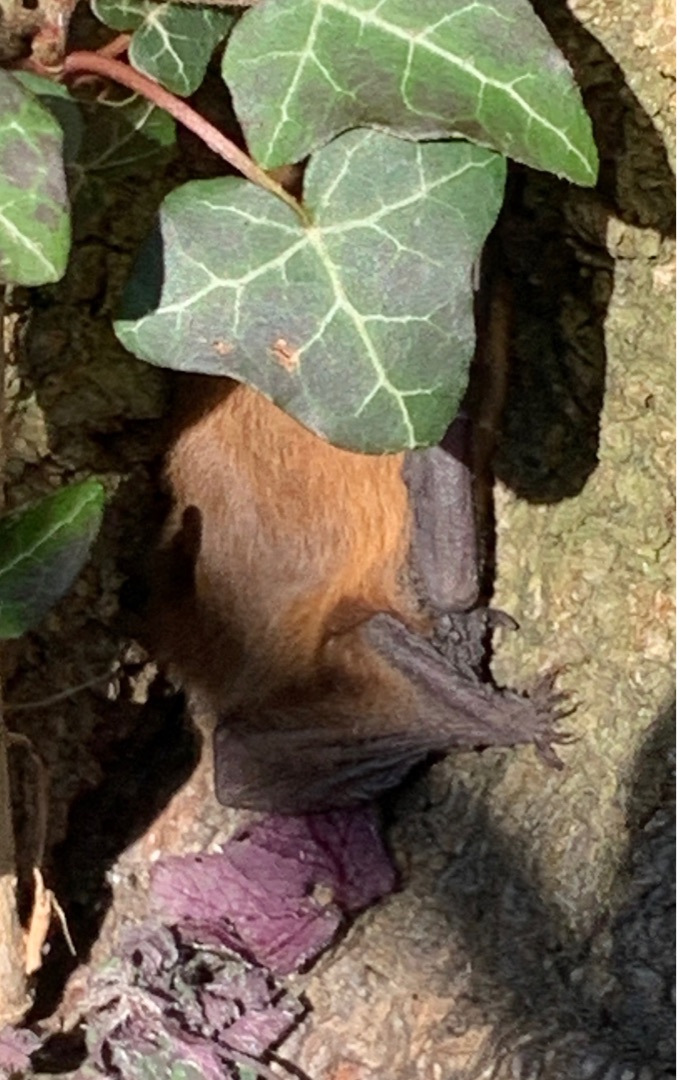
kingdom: Animalia
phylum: Chordata
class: Mammalia
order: Chiroptera
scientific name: Chiroptera
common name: Flagermus
